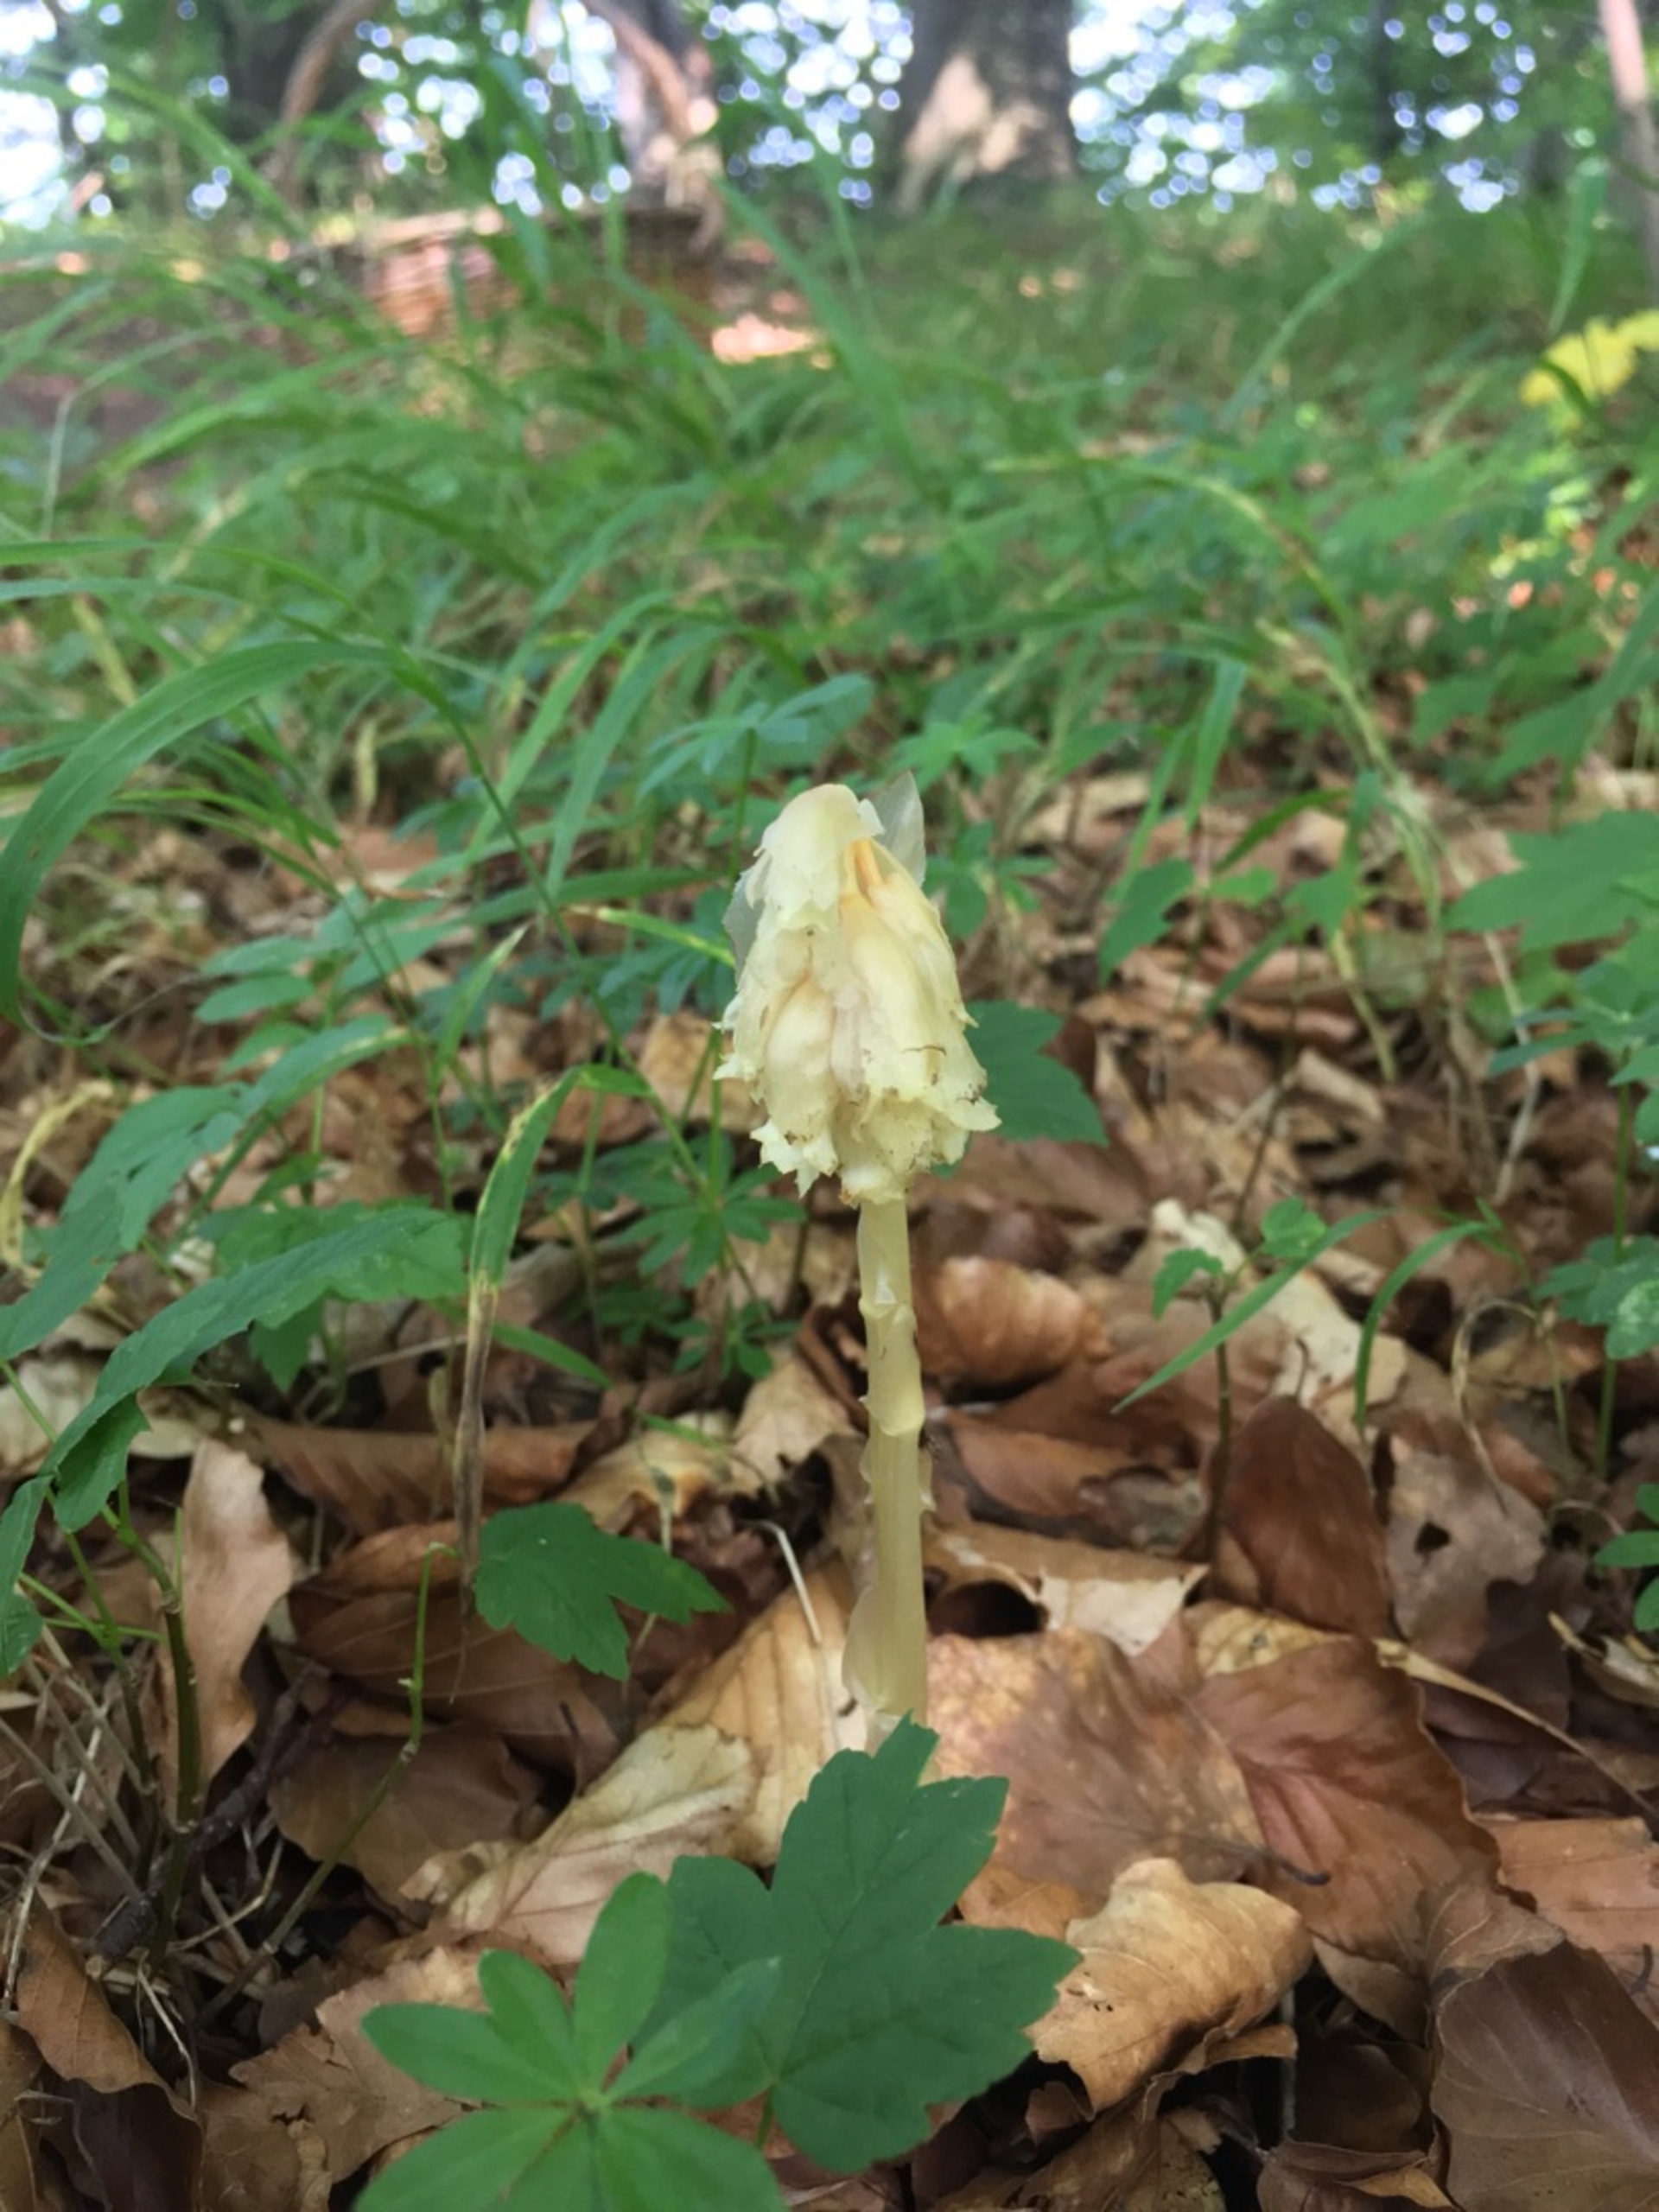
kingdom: Plantae
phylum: Tracheophyta
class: Magnoliopsida
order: Ericales
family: Ericaceae
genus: Hypopitys
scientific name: Hypopitys monotropa
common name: Snylterod
